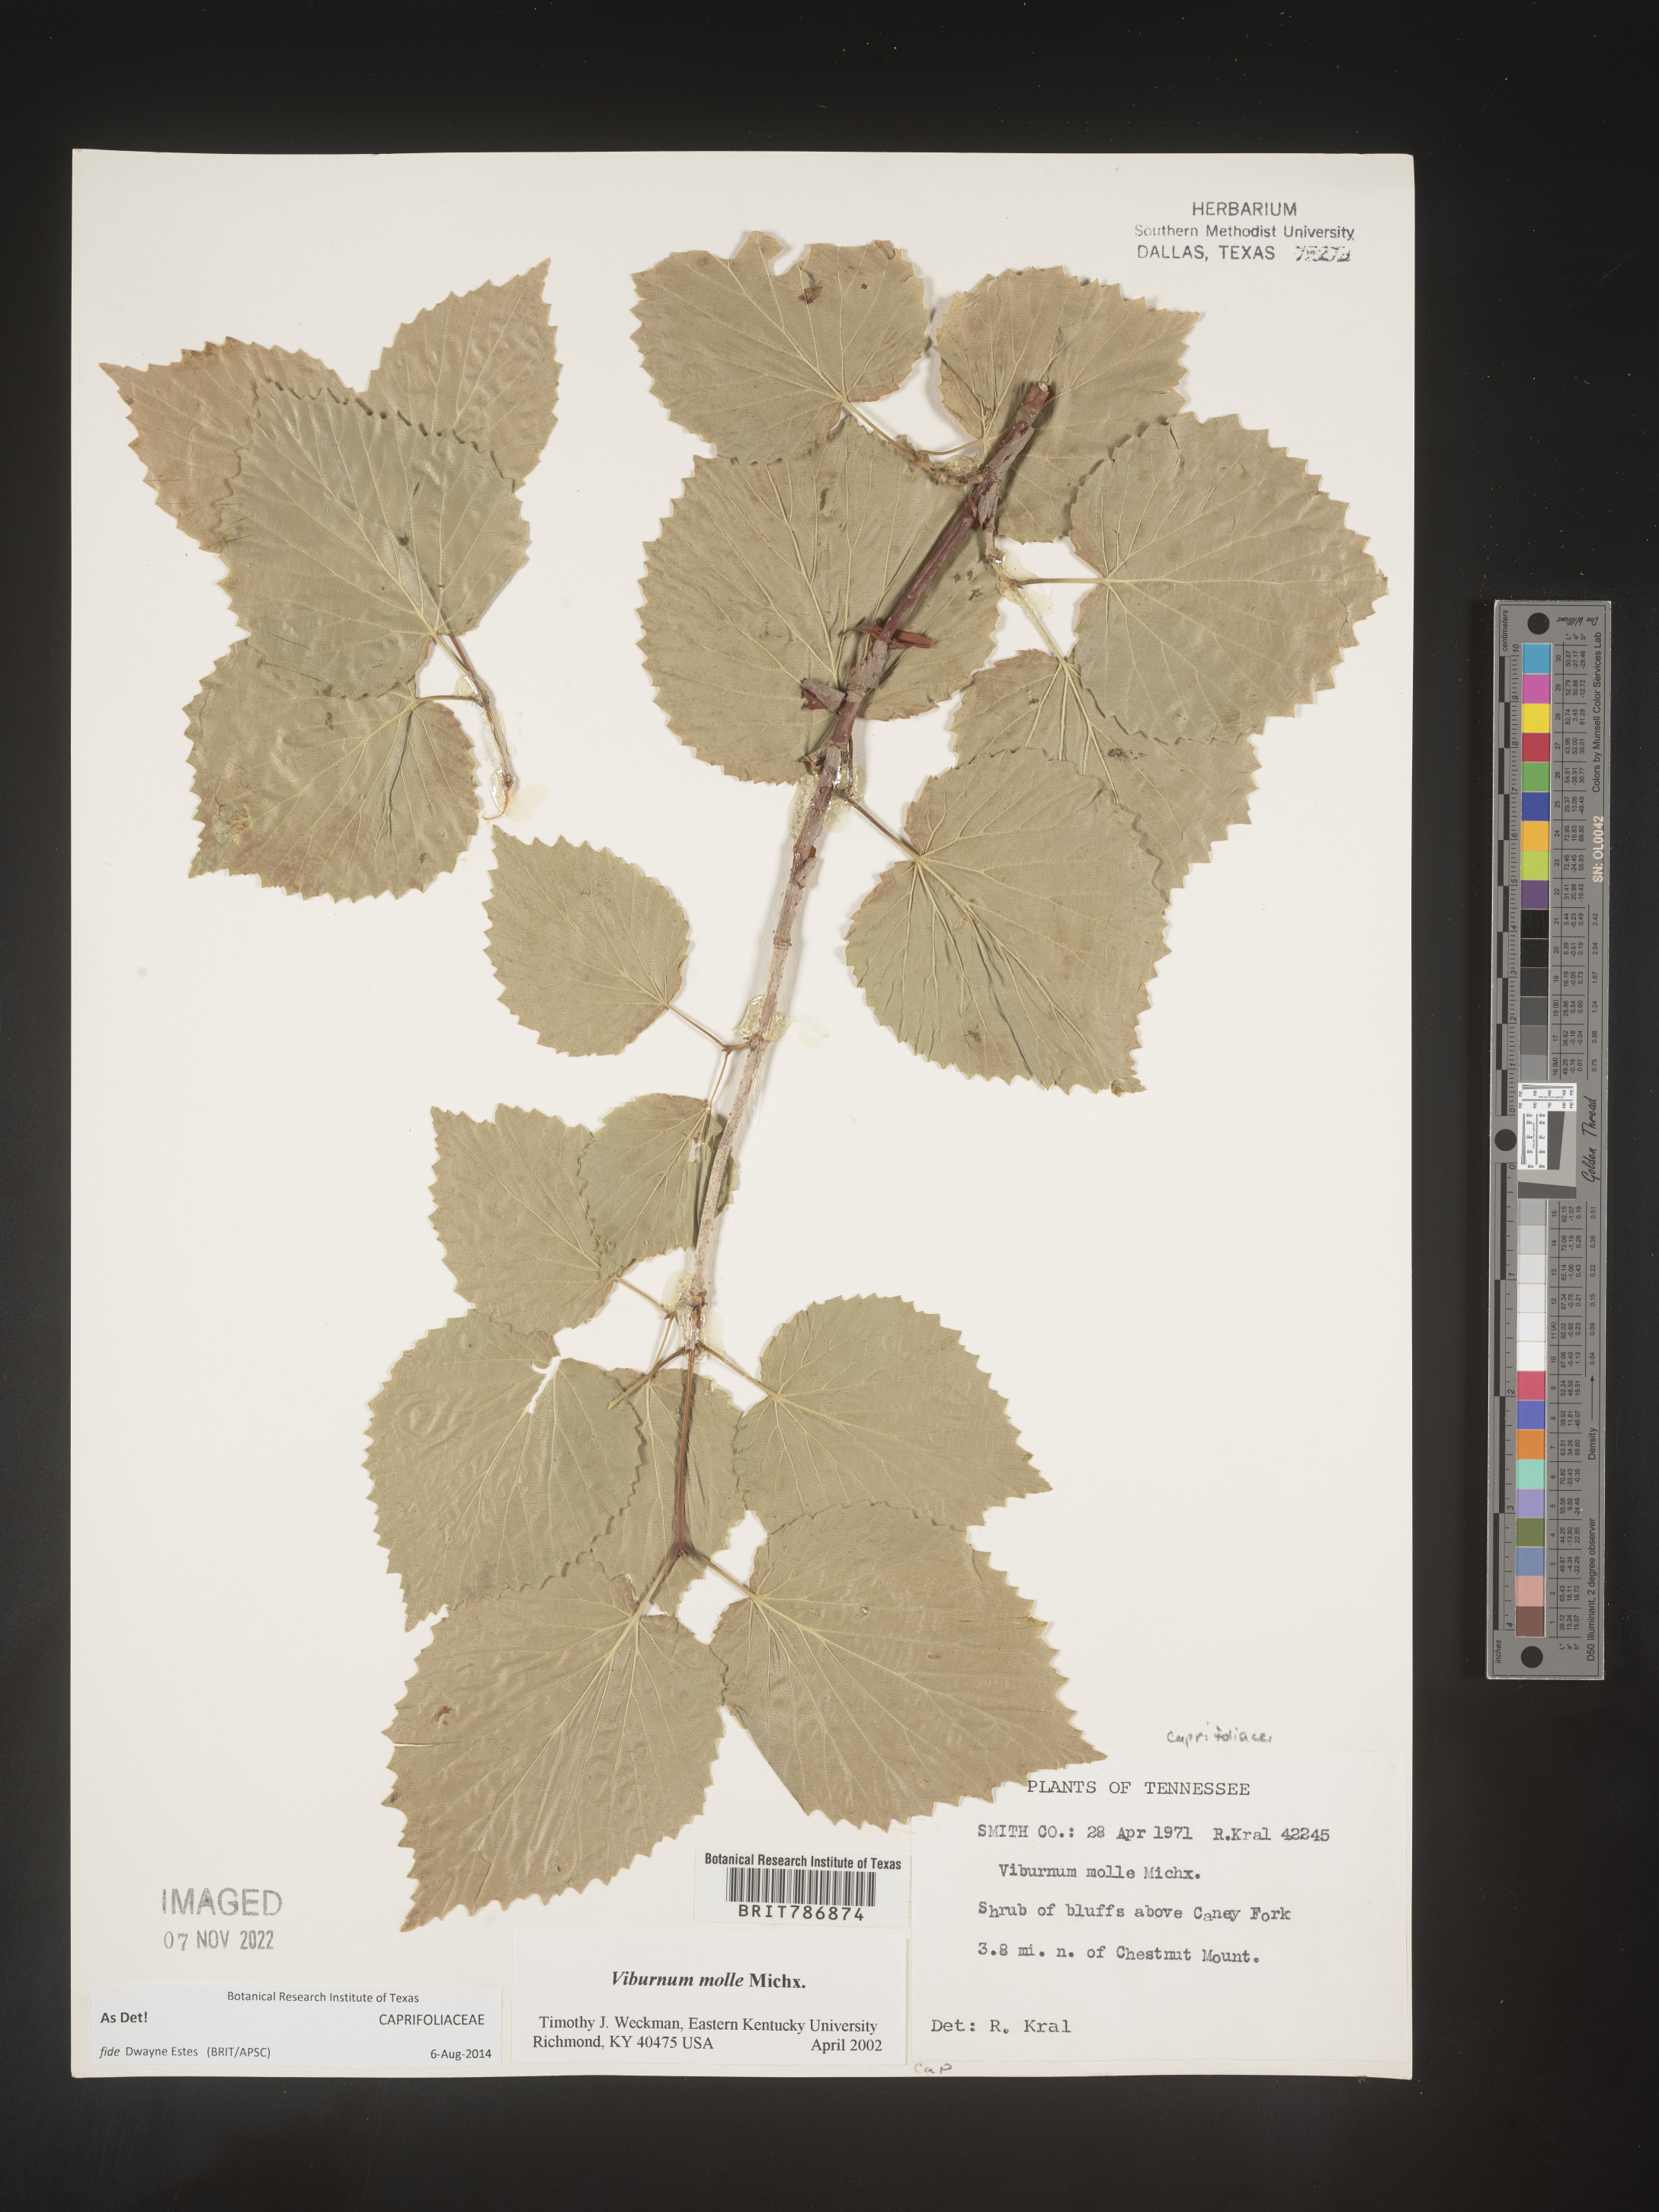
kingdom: Plantae
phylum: Tracheophyta
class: Magnoliopsida
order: Dipsacales
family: Viburnaceae
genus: Viburnum
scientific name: Viburnum molle
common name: Soft-leaf arrow-wood
